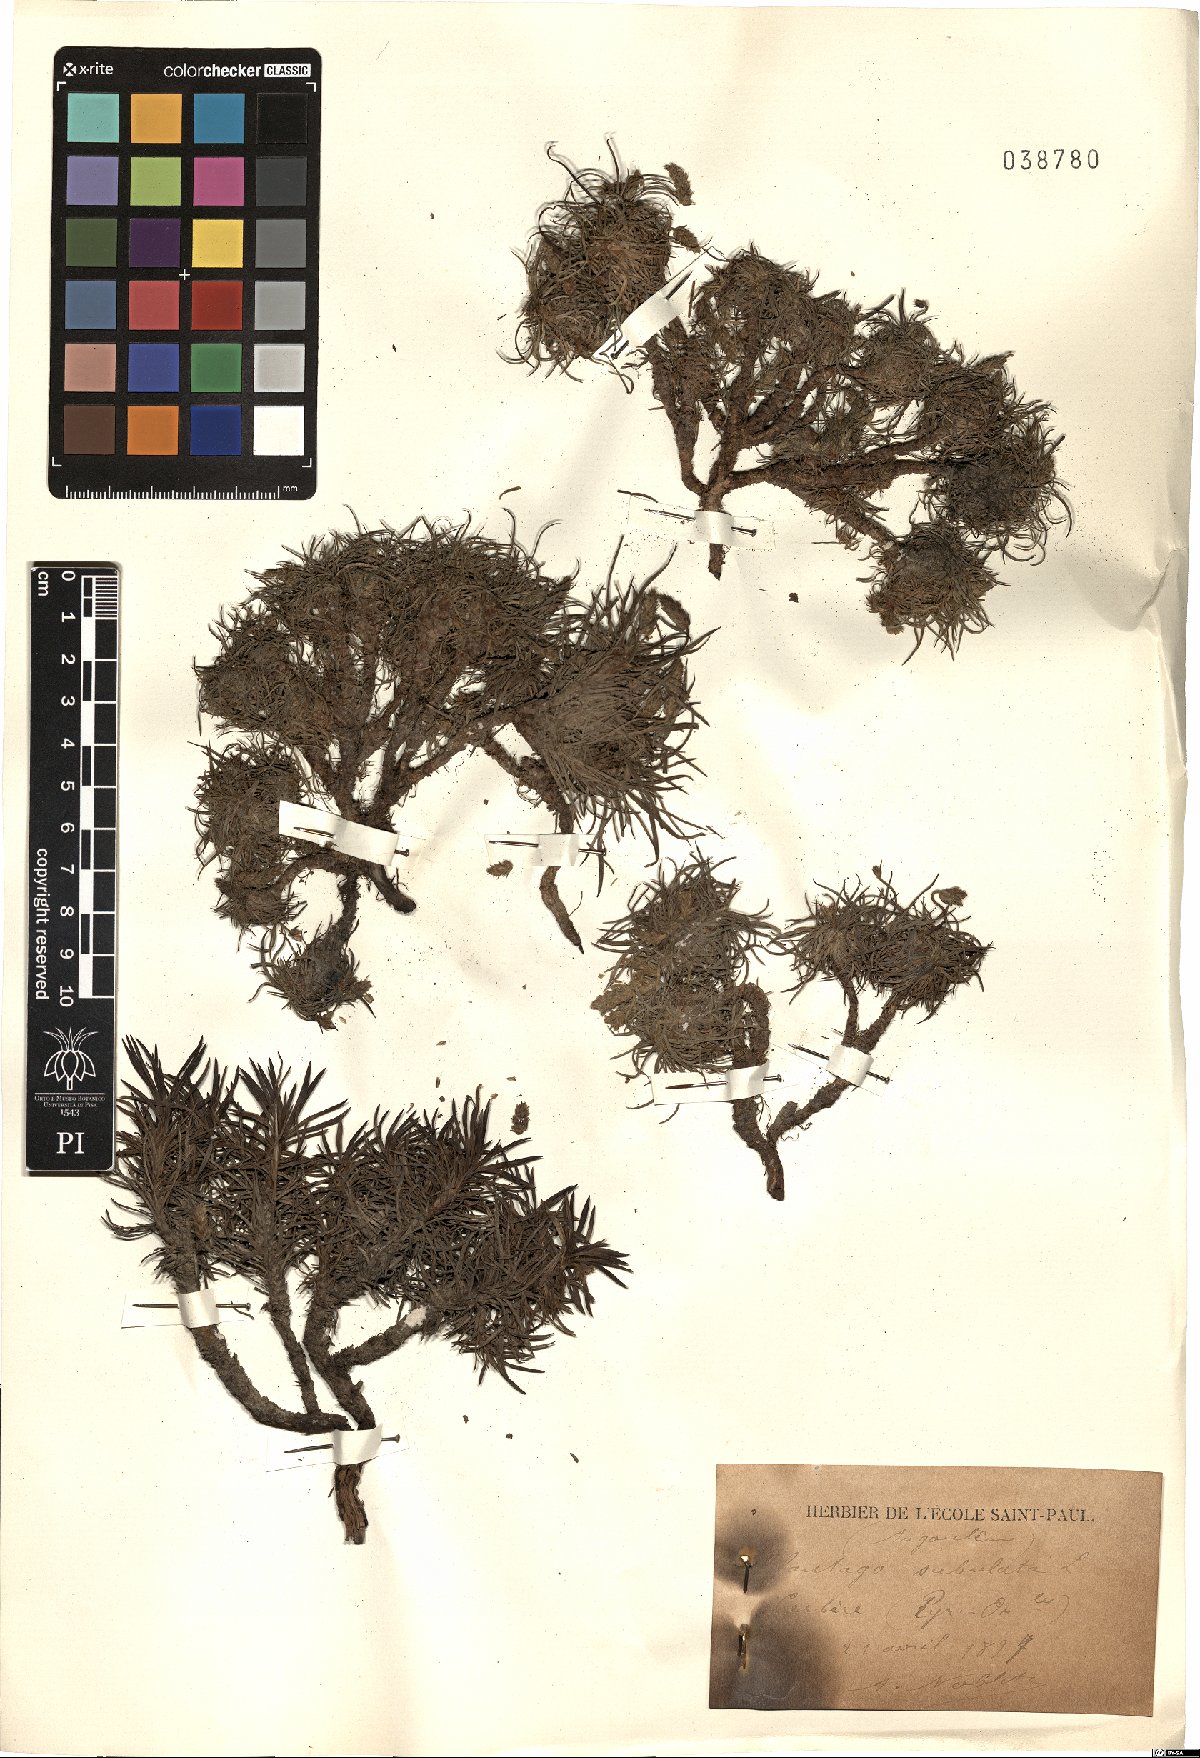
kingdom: Plantae
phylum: Tracheophyta
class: Magnoliopsida
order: Lamiales
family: Plantaginaceae
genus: Plantago
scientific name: Plantago subulata
